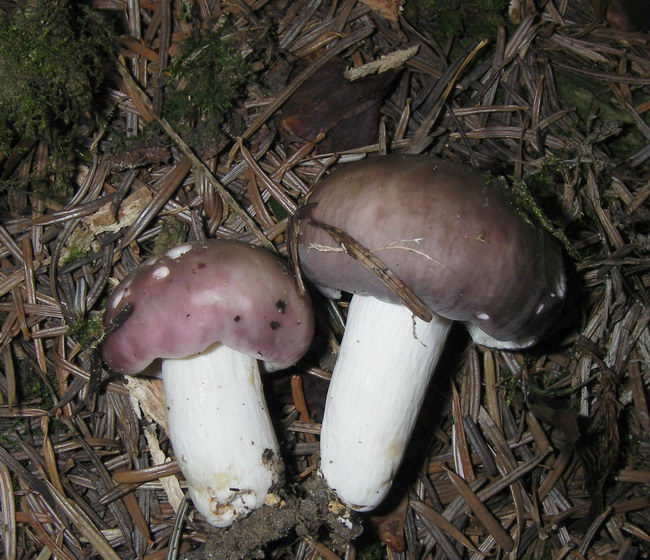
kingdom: Fungi
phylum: Basidiomycota
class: Agaricomycetes
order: Russulales
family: Russulaceae
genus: Russula
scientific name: Russula grisea
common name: grålig skørhat
